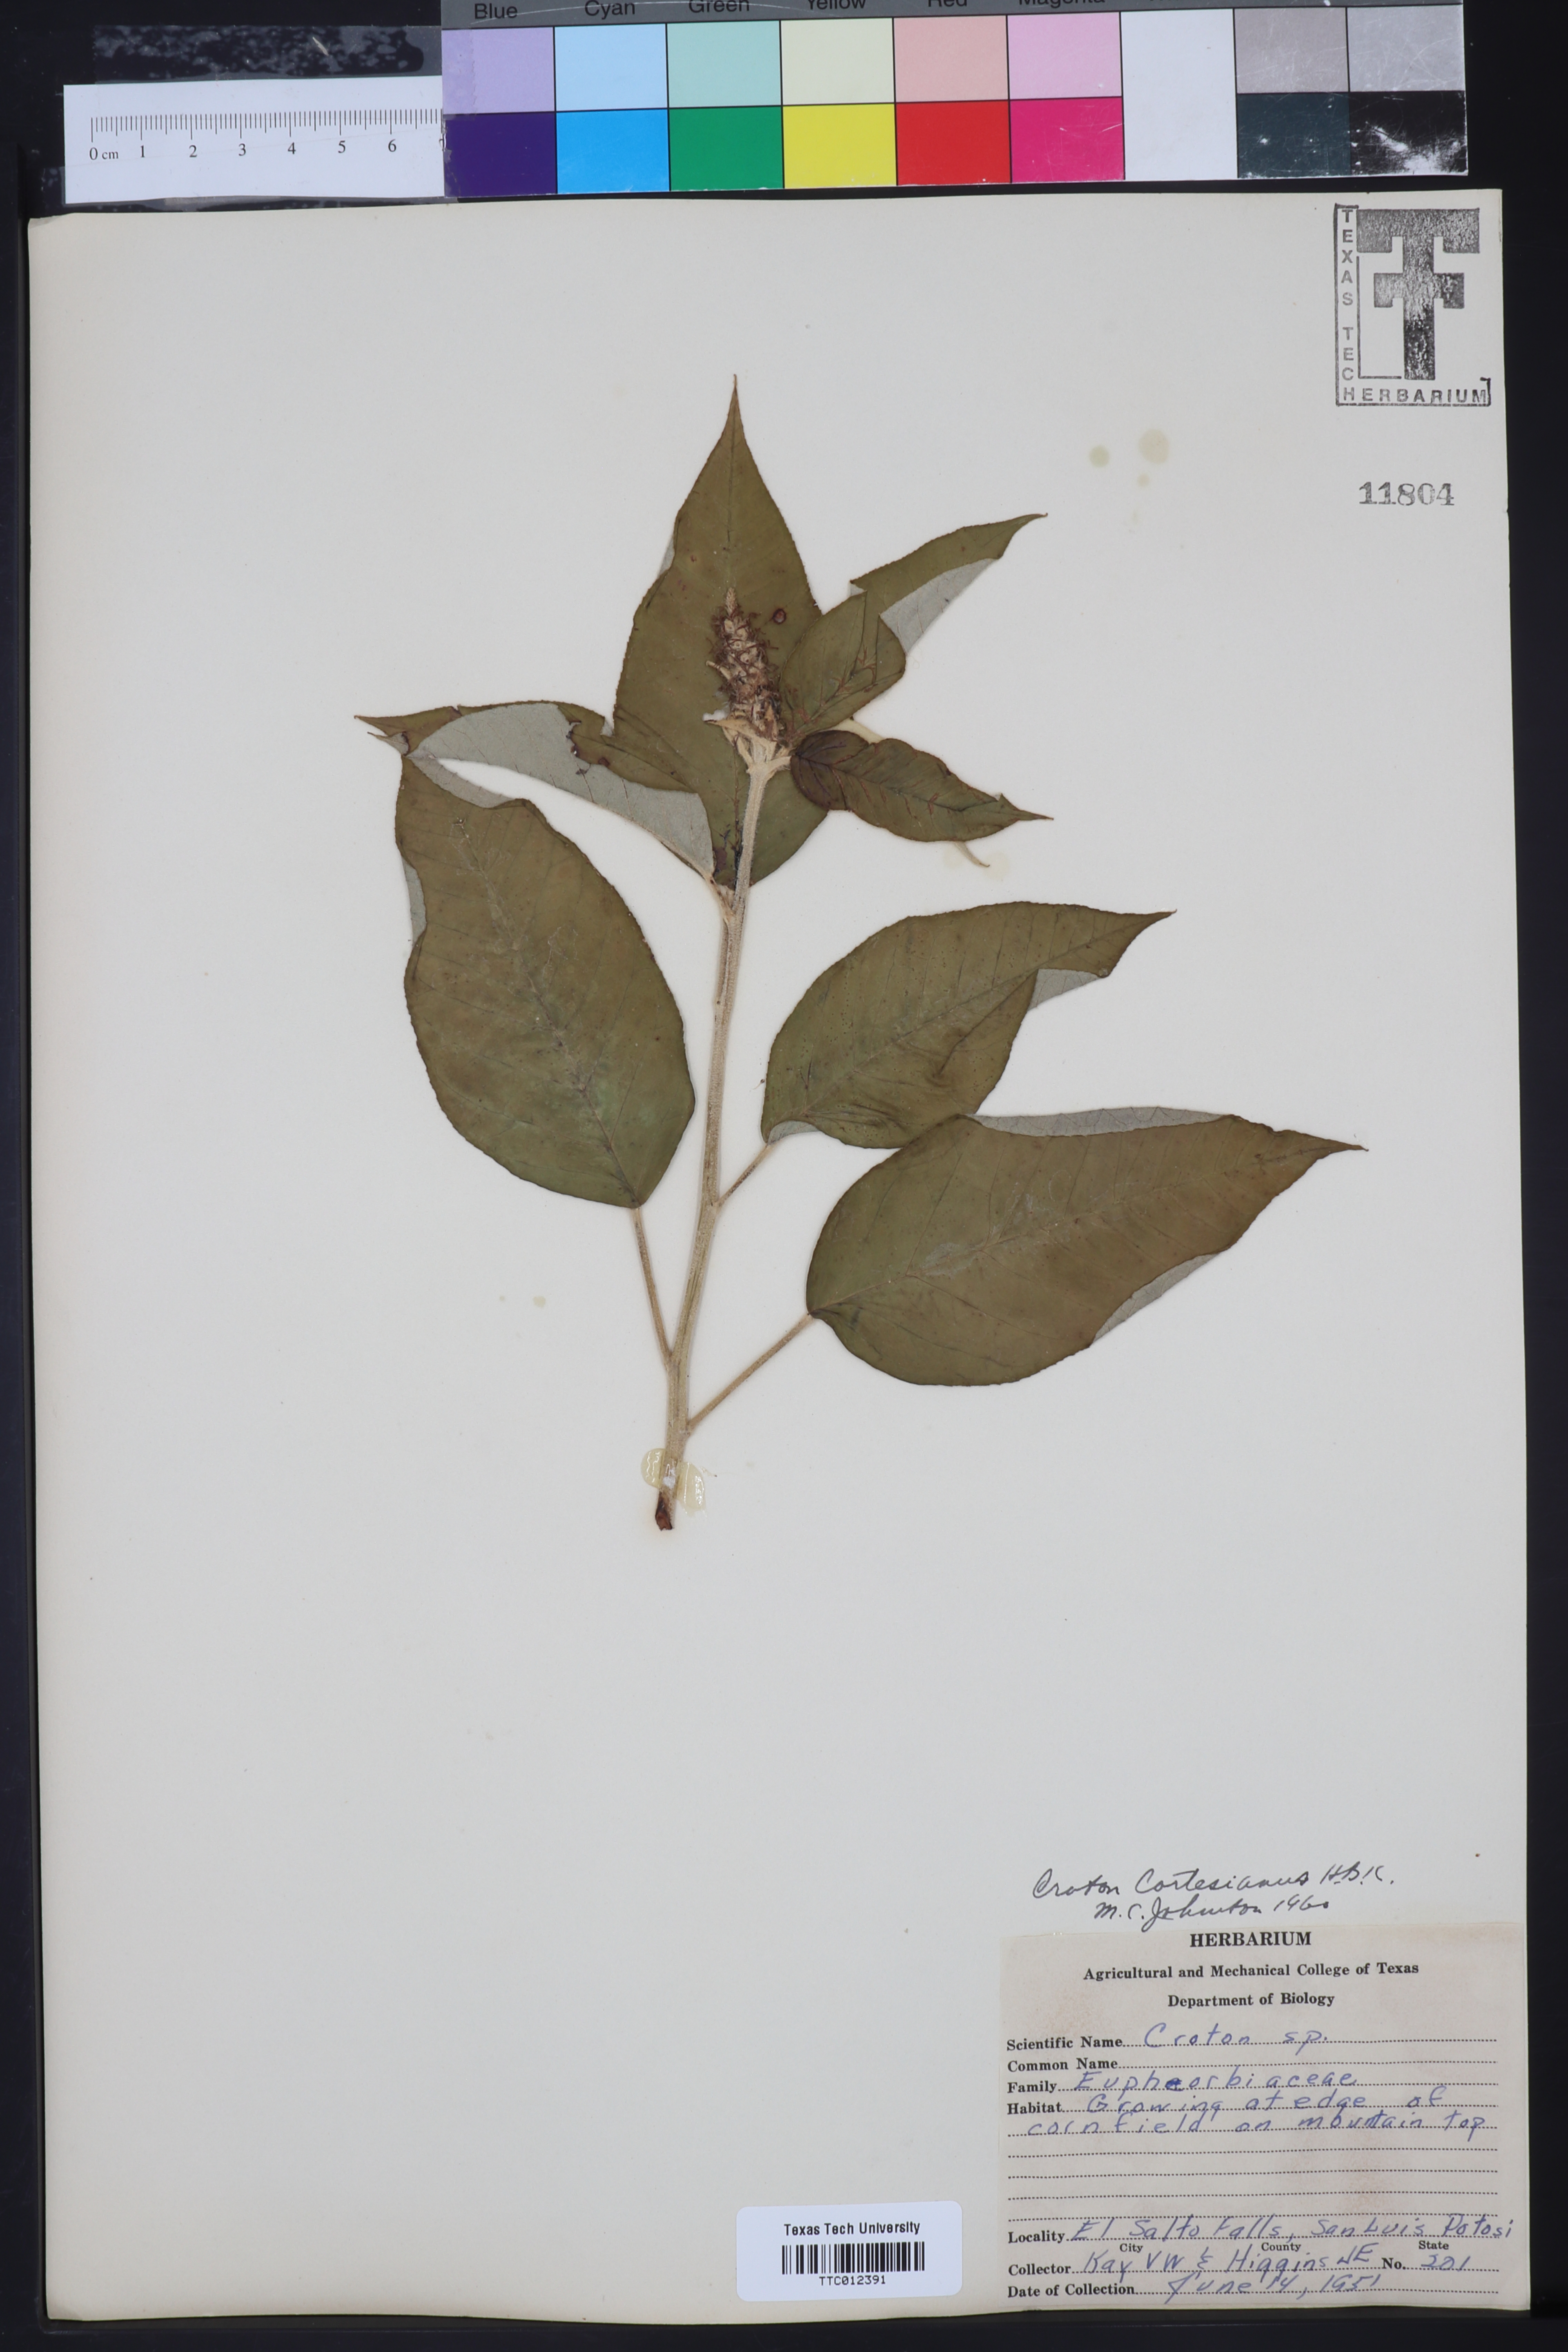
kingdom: Plantae
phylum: Tracheophyta
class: Magnoliopsida
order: Malpighiales
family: Euphorbiaceae
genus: Croton
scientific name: Croton cortesianus
